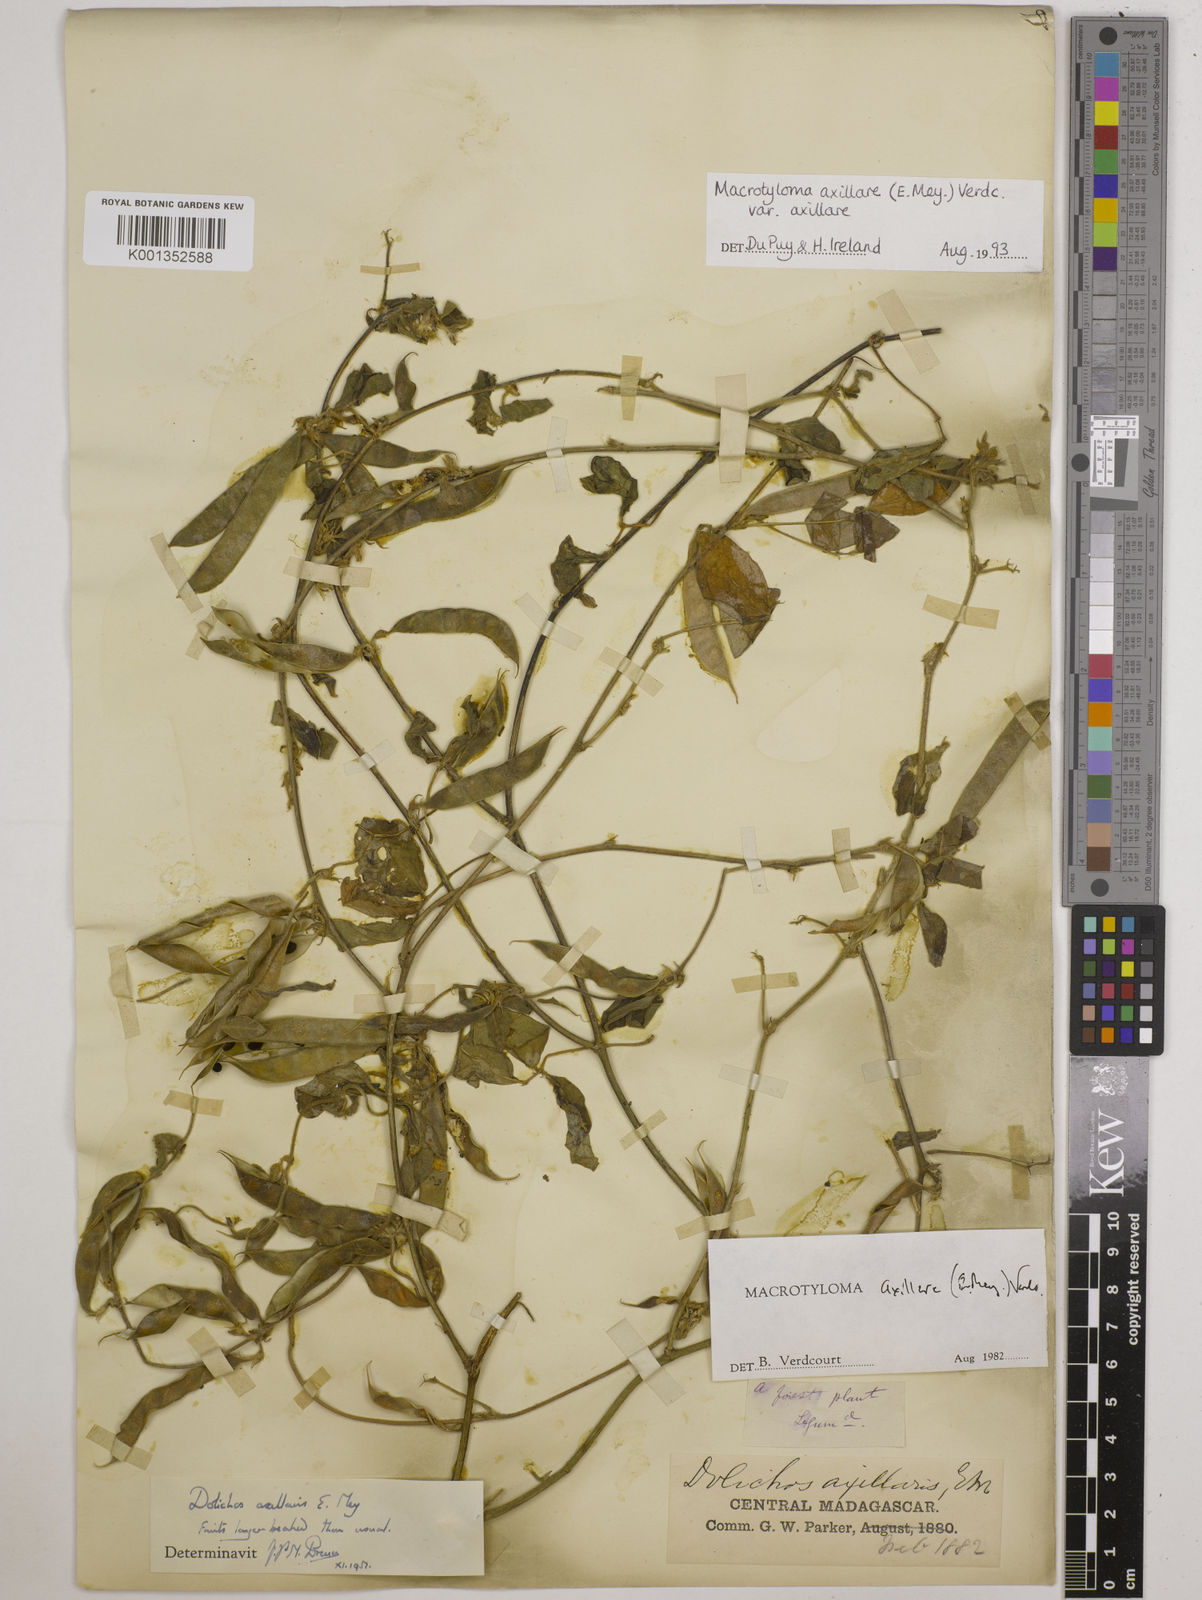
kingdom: Plantae
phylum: Tracheophyta
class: Magnoliopsida
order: Fabales
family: Fabaceae
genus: Macrotyloma
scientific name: Macrotyloma axillare
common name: Perennial horsegram
